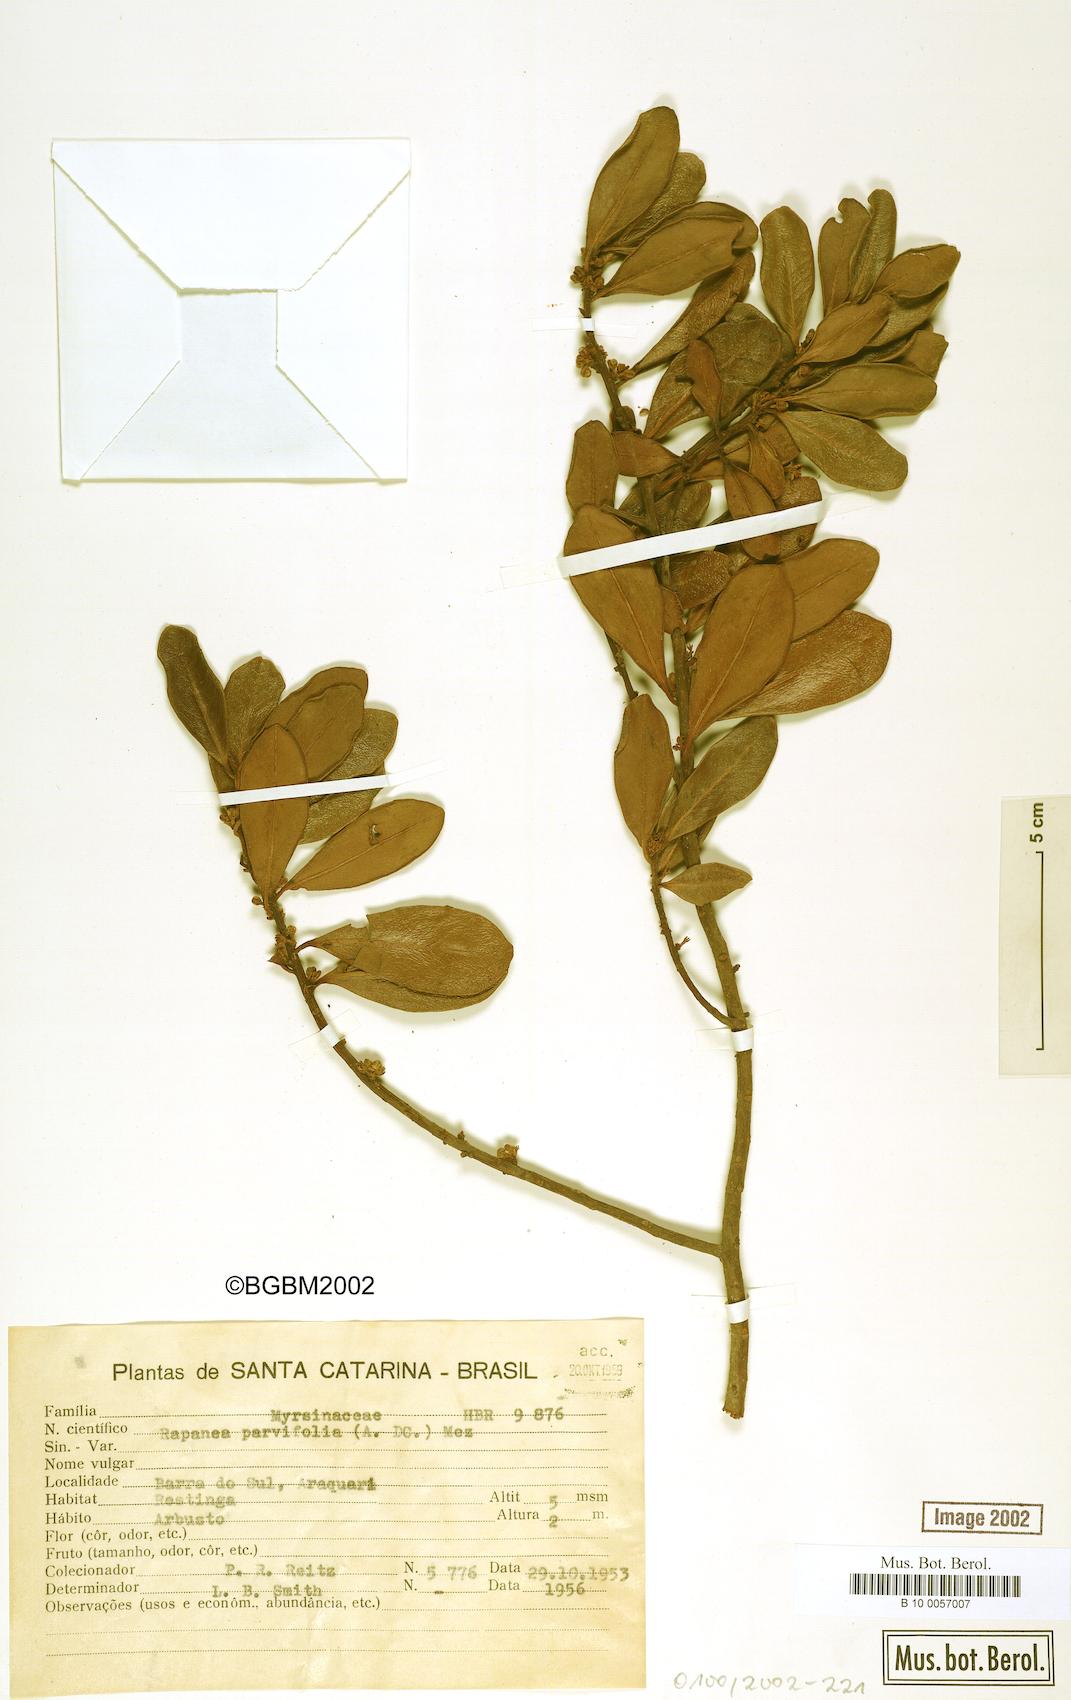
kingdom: Plantae
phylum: Tracheophyta
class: Magnoliopsida
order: Ericales
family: Primulaceae
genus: Myrsine
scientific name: Myrsine parvifolia
